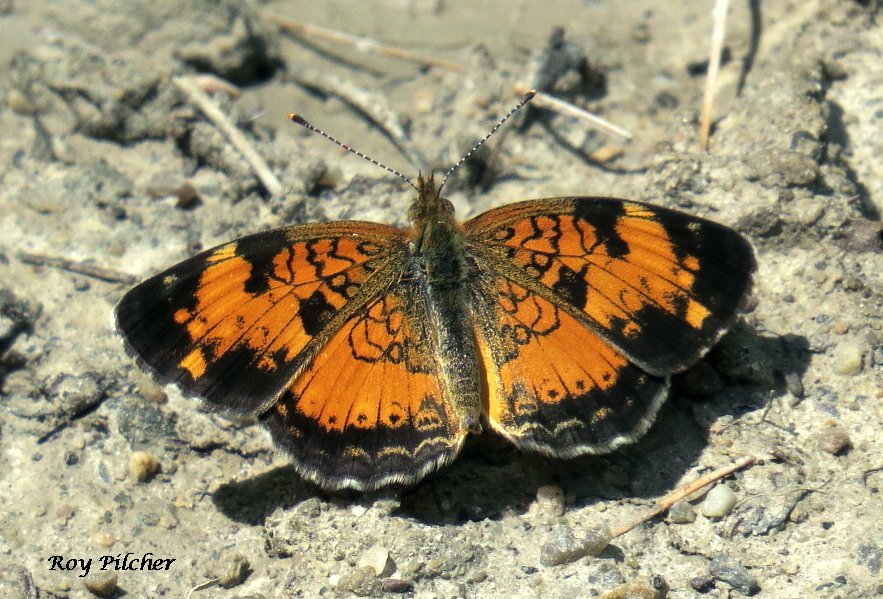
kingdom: Animalia
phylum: Arthropoda
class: Insecta
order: Lepidoptera
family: Nymphalidae
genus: Phyciodes
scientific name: Phyciodes tharos
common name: Northern Crescent
